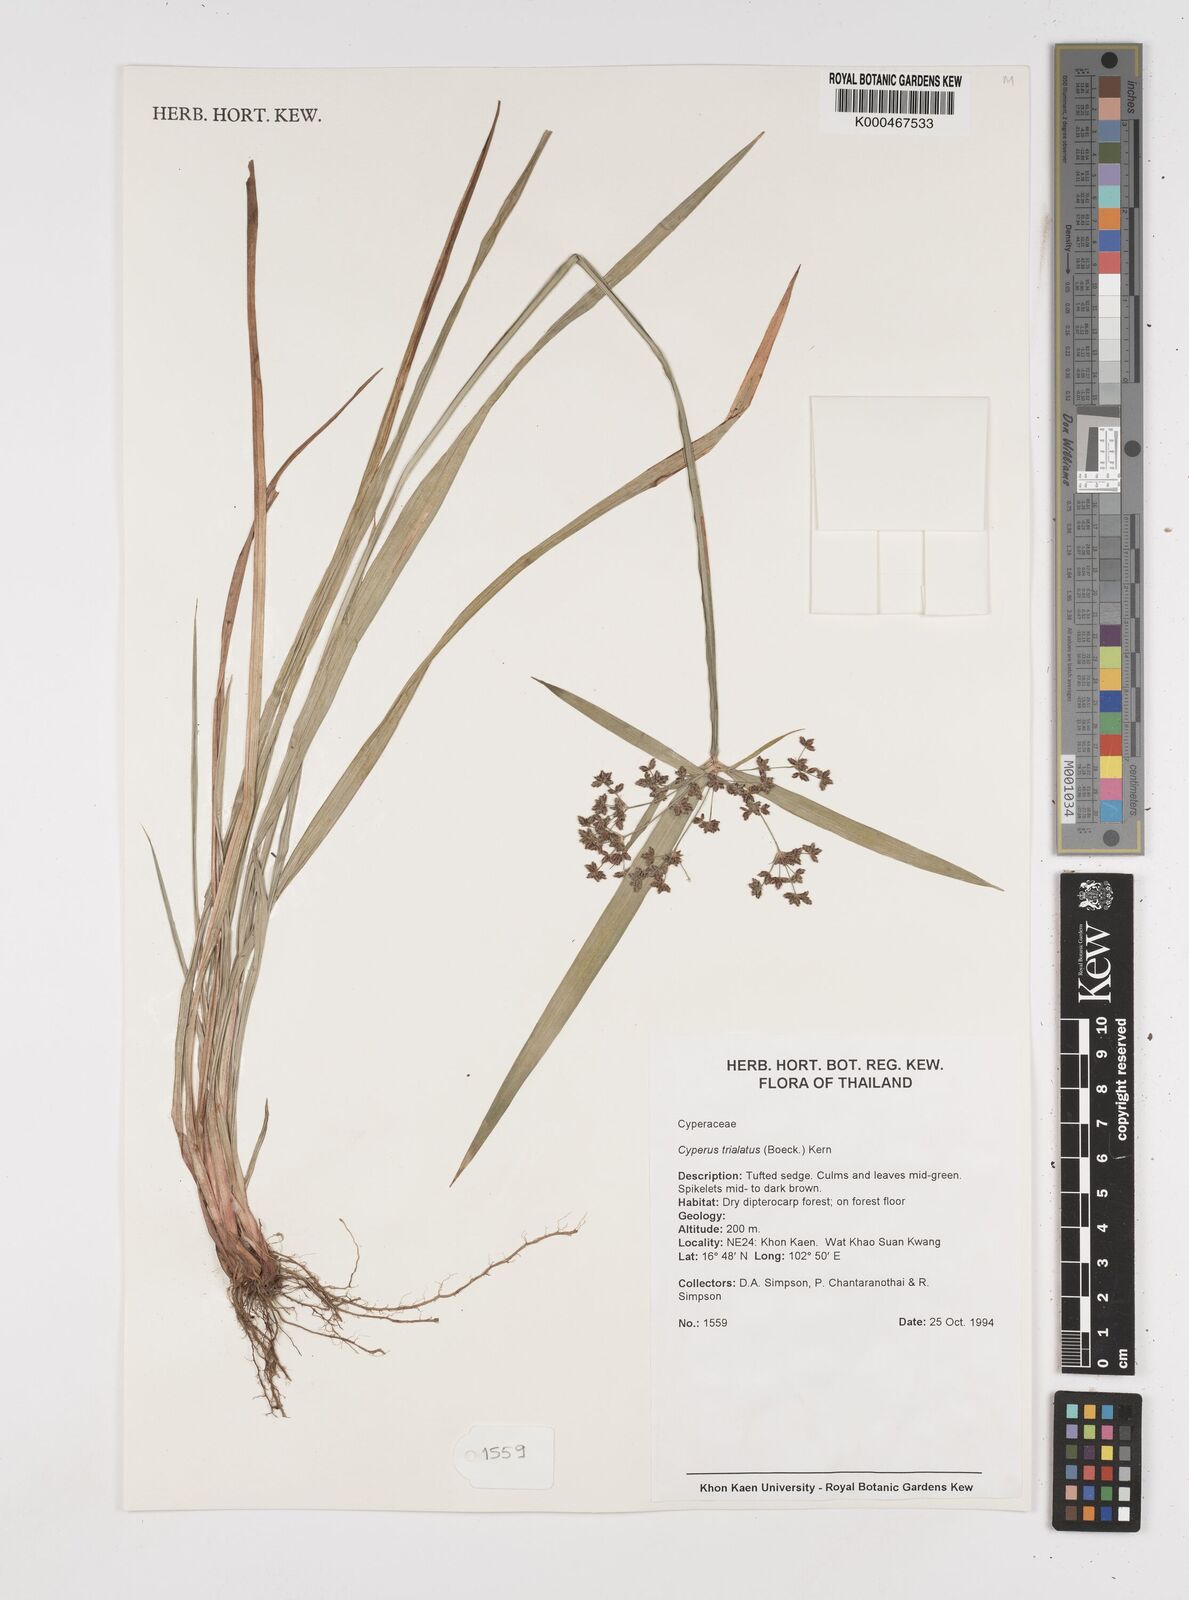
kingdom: Plantae
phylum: Tracheophyta
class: Liliopsida
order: Poales
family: Cyperaceae
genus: Cyperus
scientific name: Cyperus trialatus
